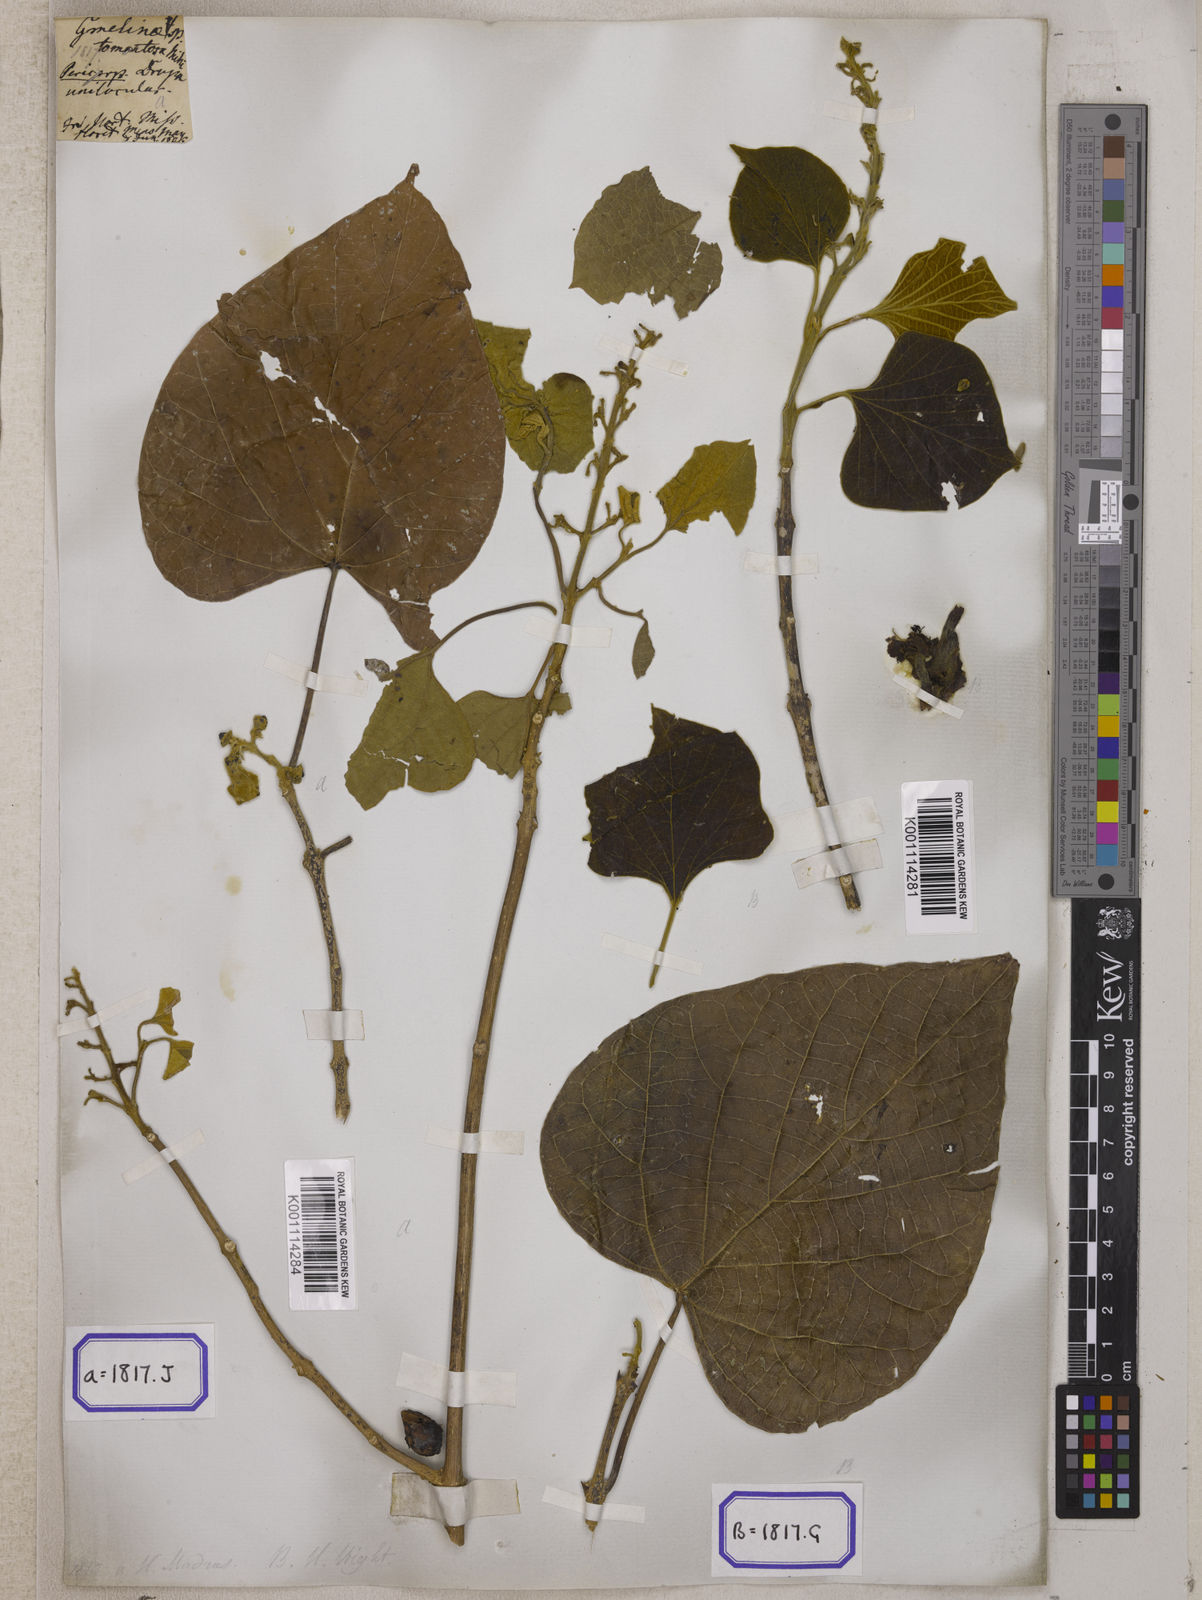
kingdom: Plantae
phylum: Tracheophyta
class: Magnoliopsida
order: Lamiales
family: Lamiaceae
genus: Gmelina
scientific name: Gmelina
